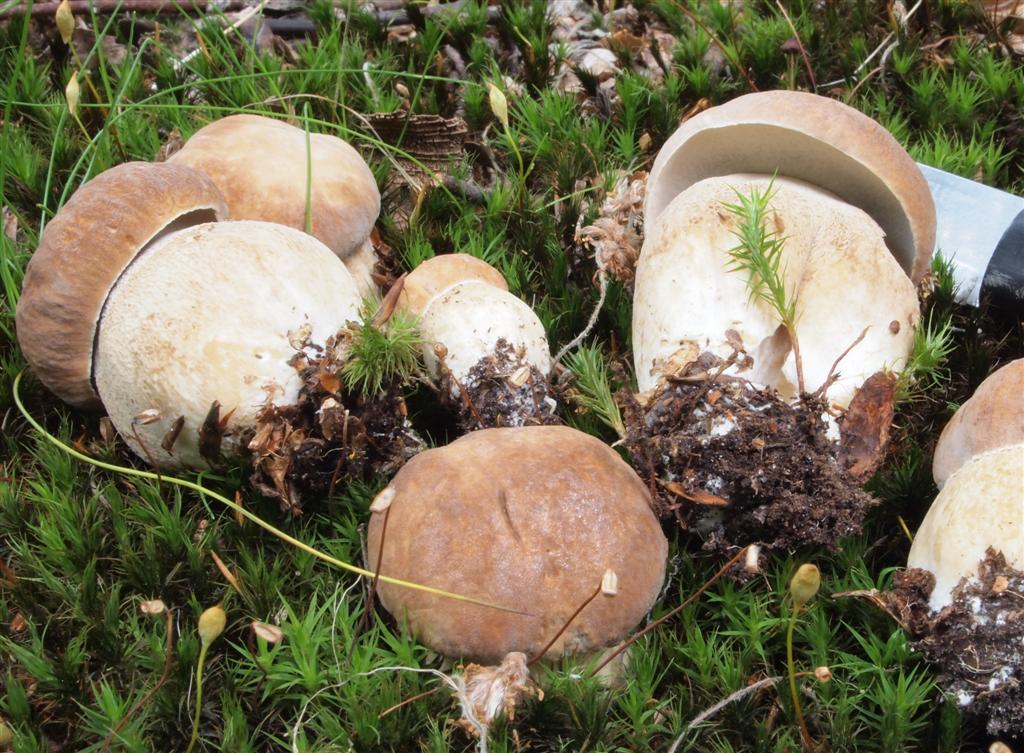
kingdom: Fungi
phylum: Basidiomycota
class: Agaricomycetes
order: Boletales
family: Boletaceae
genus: Boletus
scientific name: Boletus reticulatus
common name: sommer-rørhat
